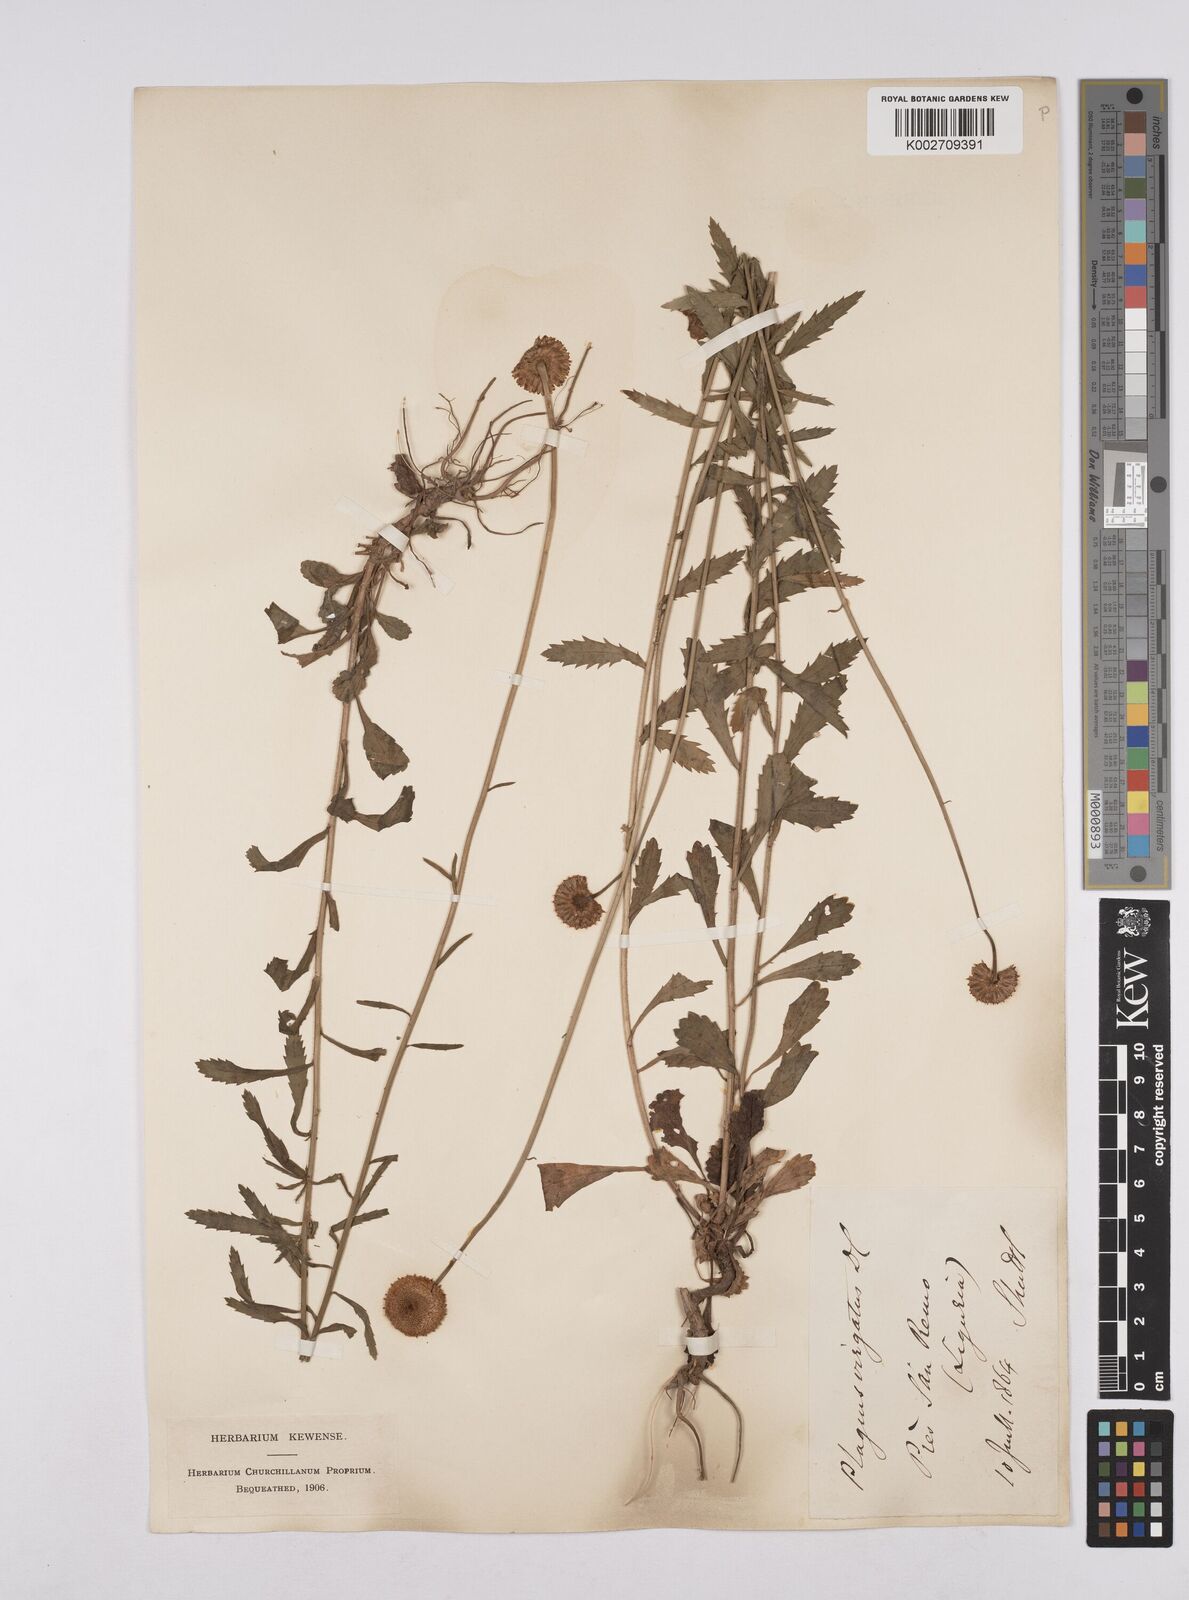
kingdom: Plantae
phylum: Tracheophyta
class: Magnoliopsida
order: Asterales
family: Asteraceae
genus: Leucanthemum
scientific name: Leucanthemum vulgare
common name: Oxeye daisy
